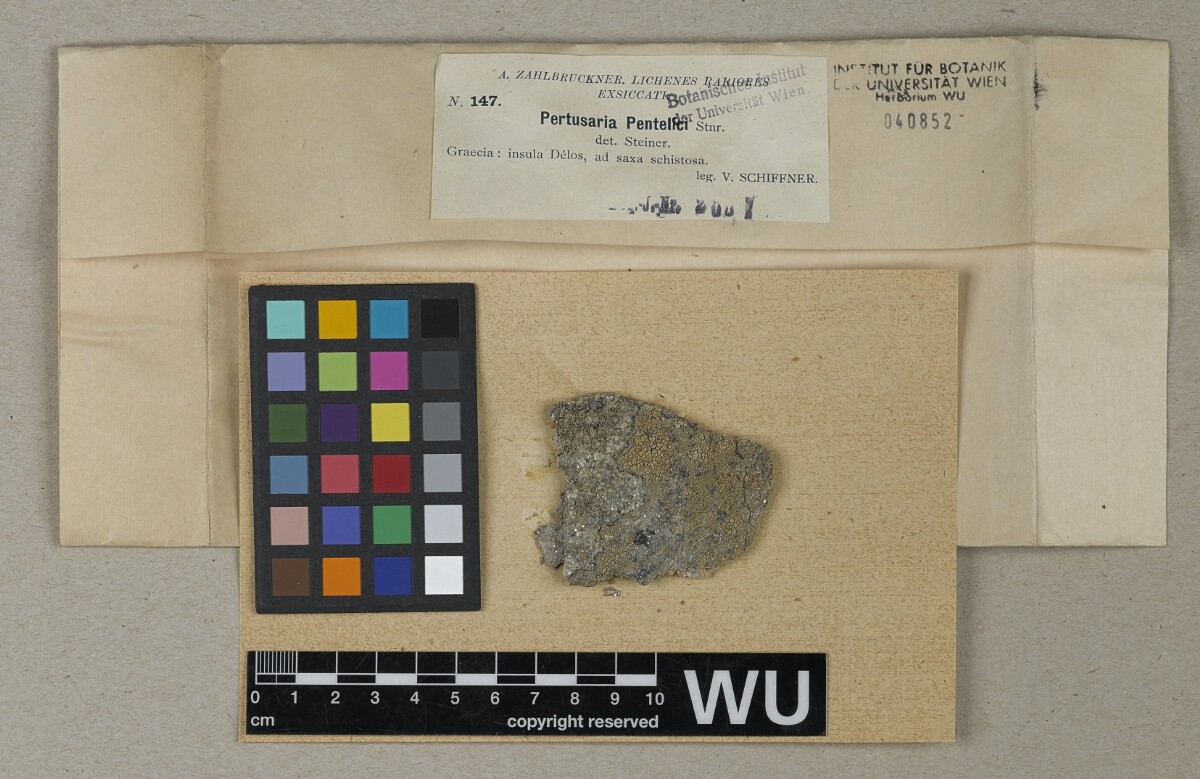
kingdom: Fungi
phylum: Ascomycota
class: Lecanoromycetes
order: Pertusariales
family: Pertusariaceae
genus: Pertusaria
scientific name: Pertusaria pentelici
